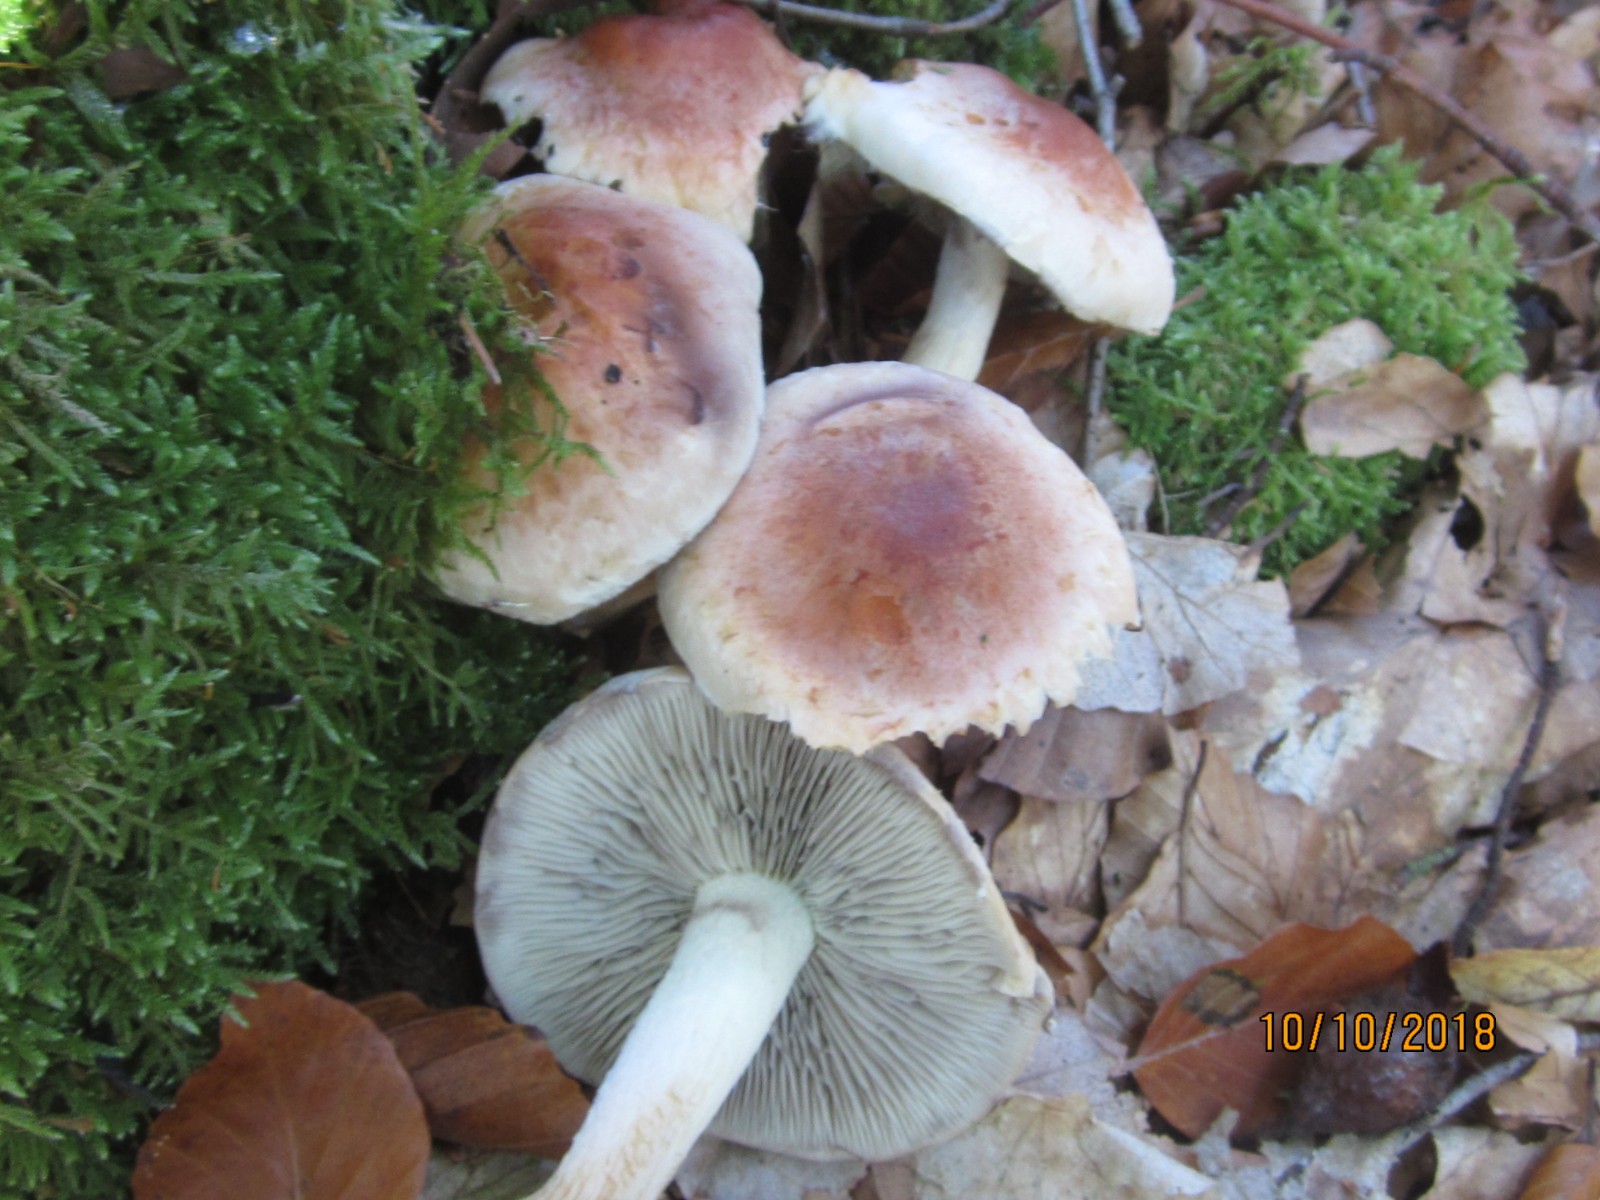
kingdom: Fungi
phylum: Basidiomycota
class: Agaricomycetes
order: Agaricales
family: Strophariaceae
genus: Hypholoma
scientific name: Hypholoma lateritium
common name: teglrød svovlhat
